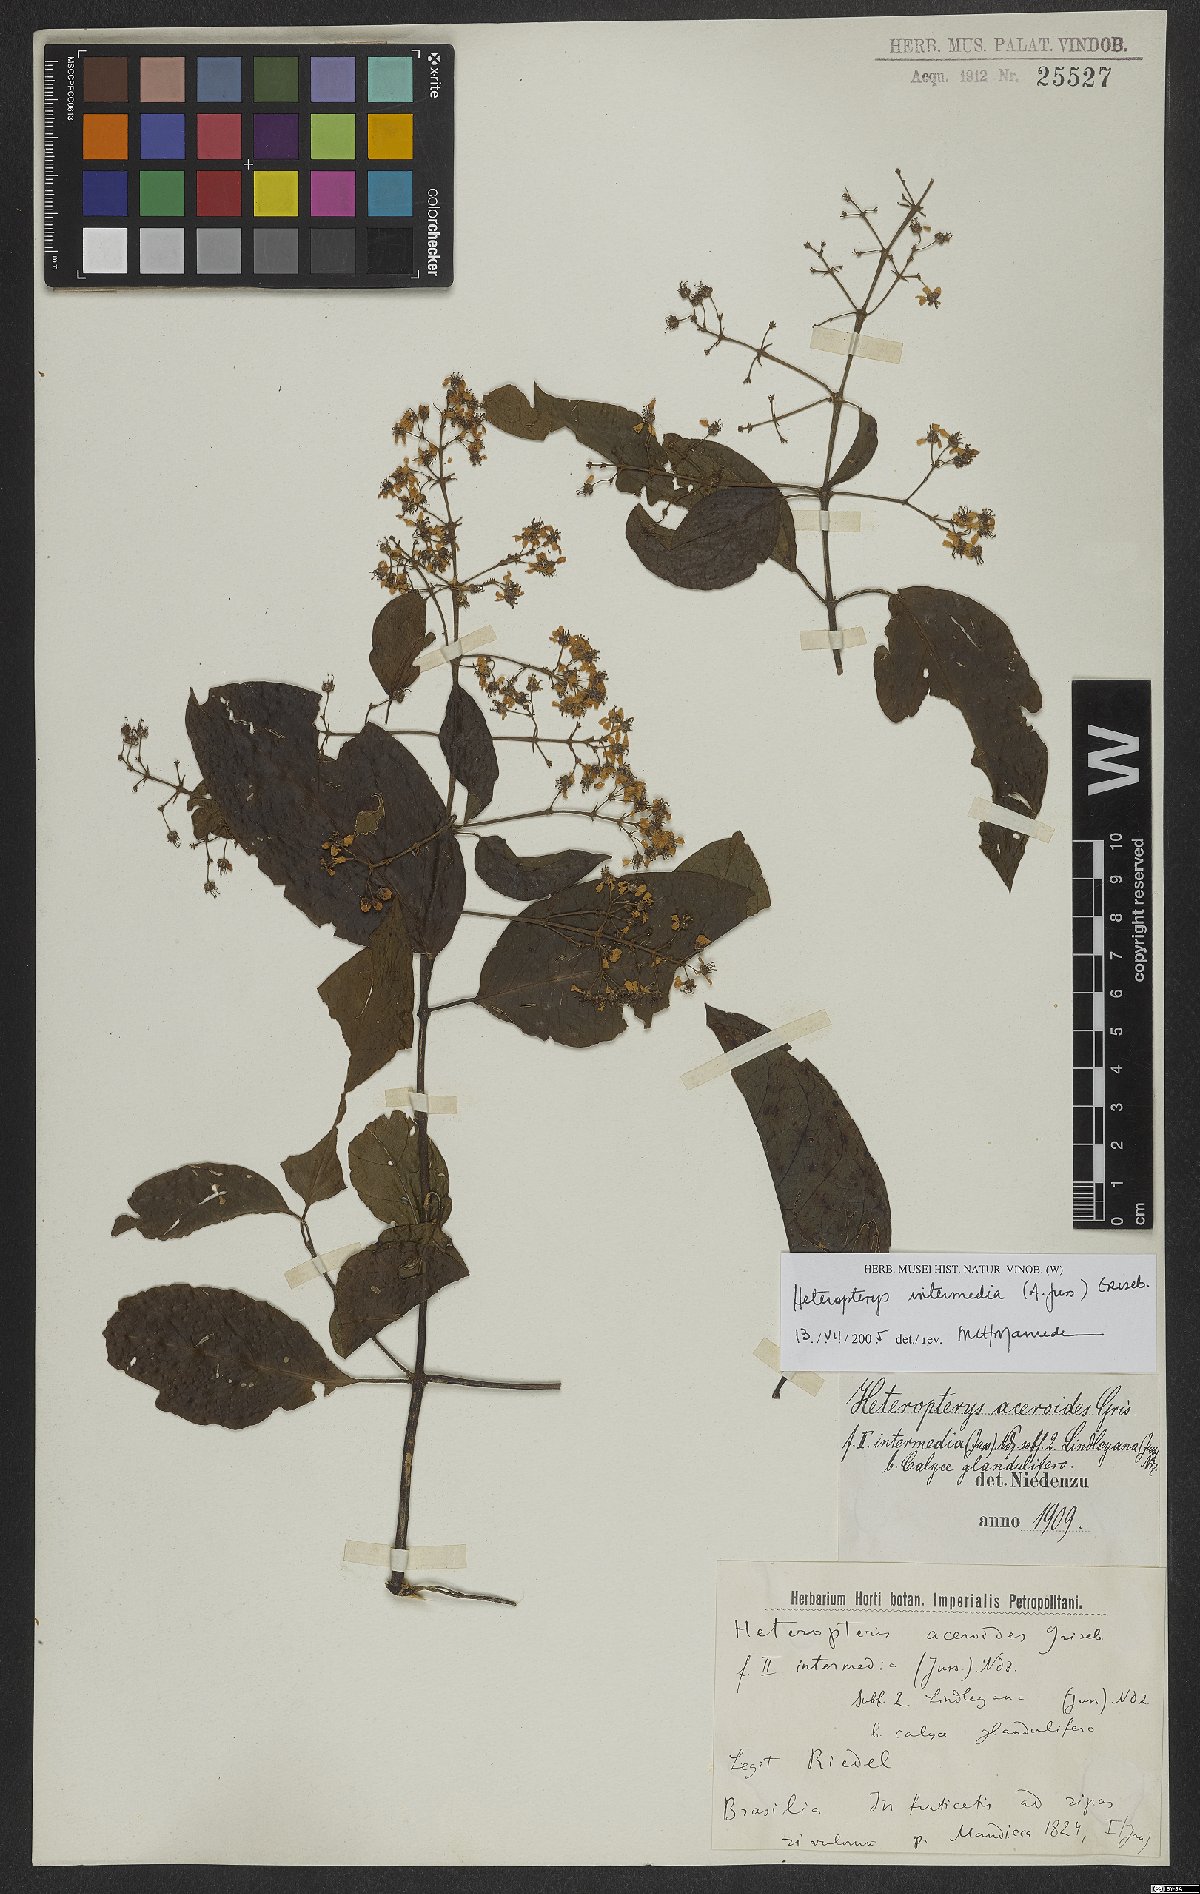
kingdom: Plantae
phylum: Tracheophyta
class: Magnoliopsida
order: Malpighiales
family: Malpighiaceae
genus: Heteropterys
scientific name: Heteropterys intermedia
